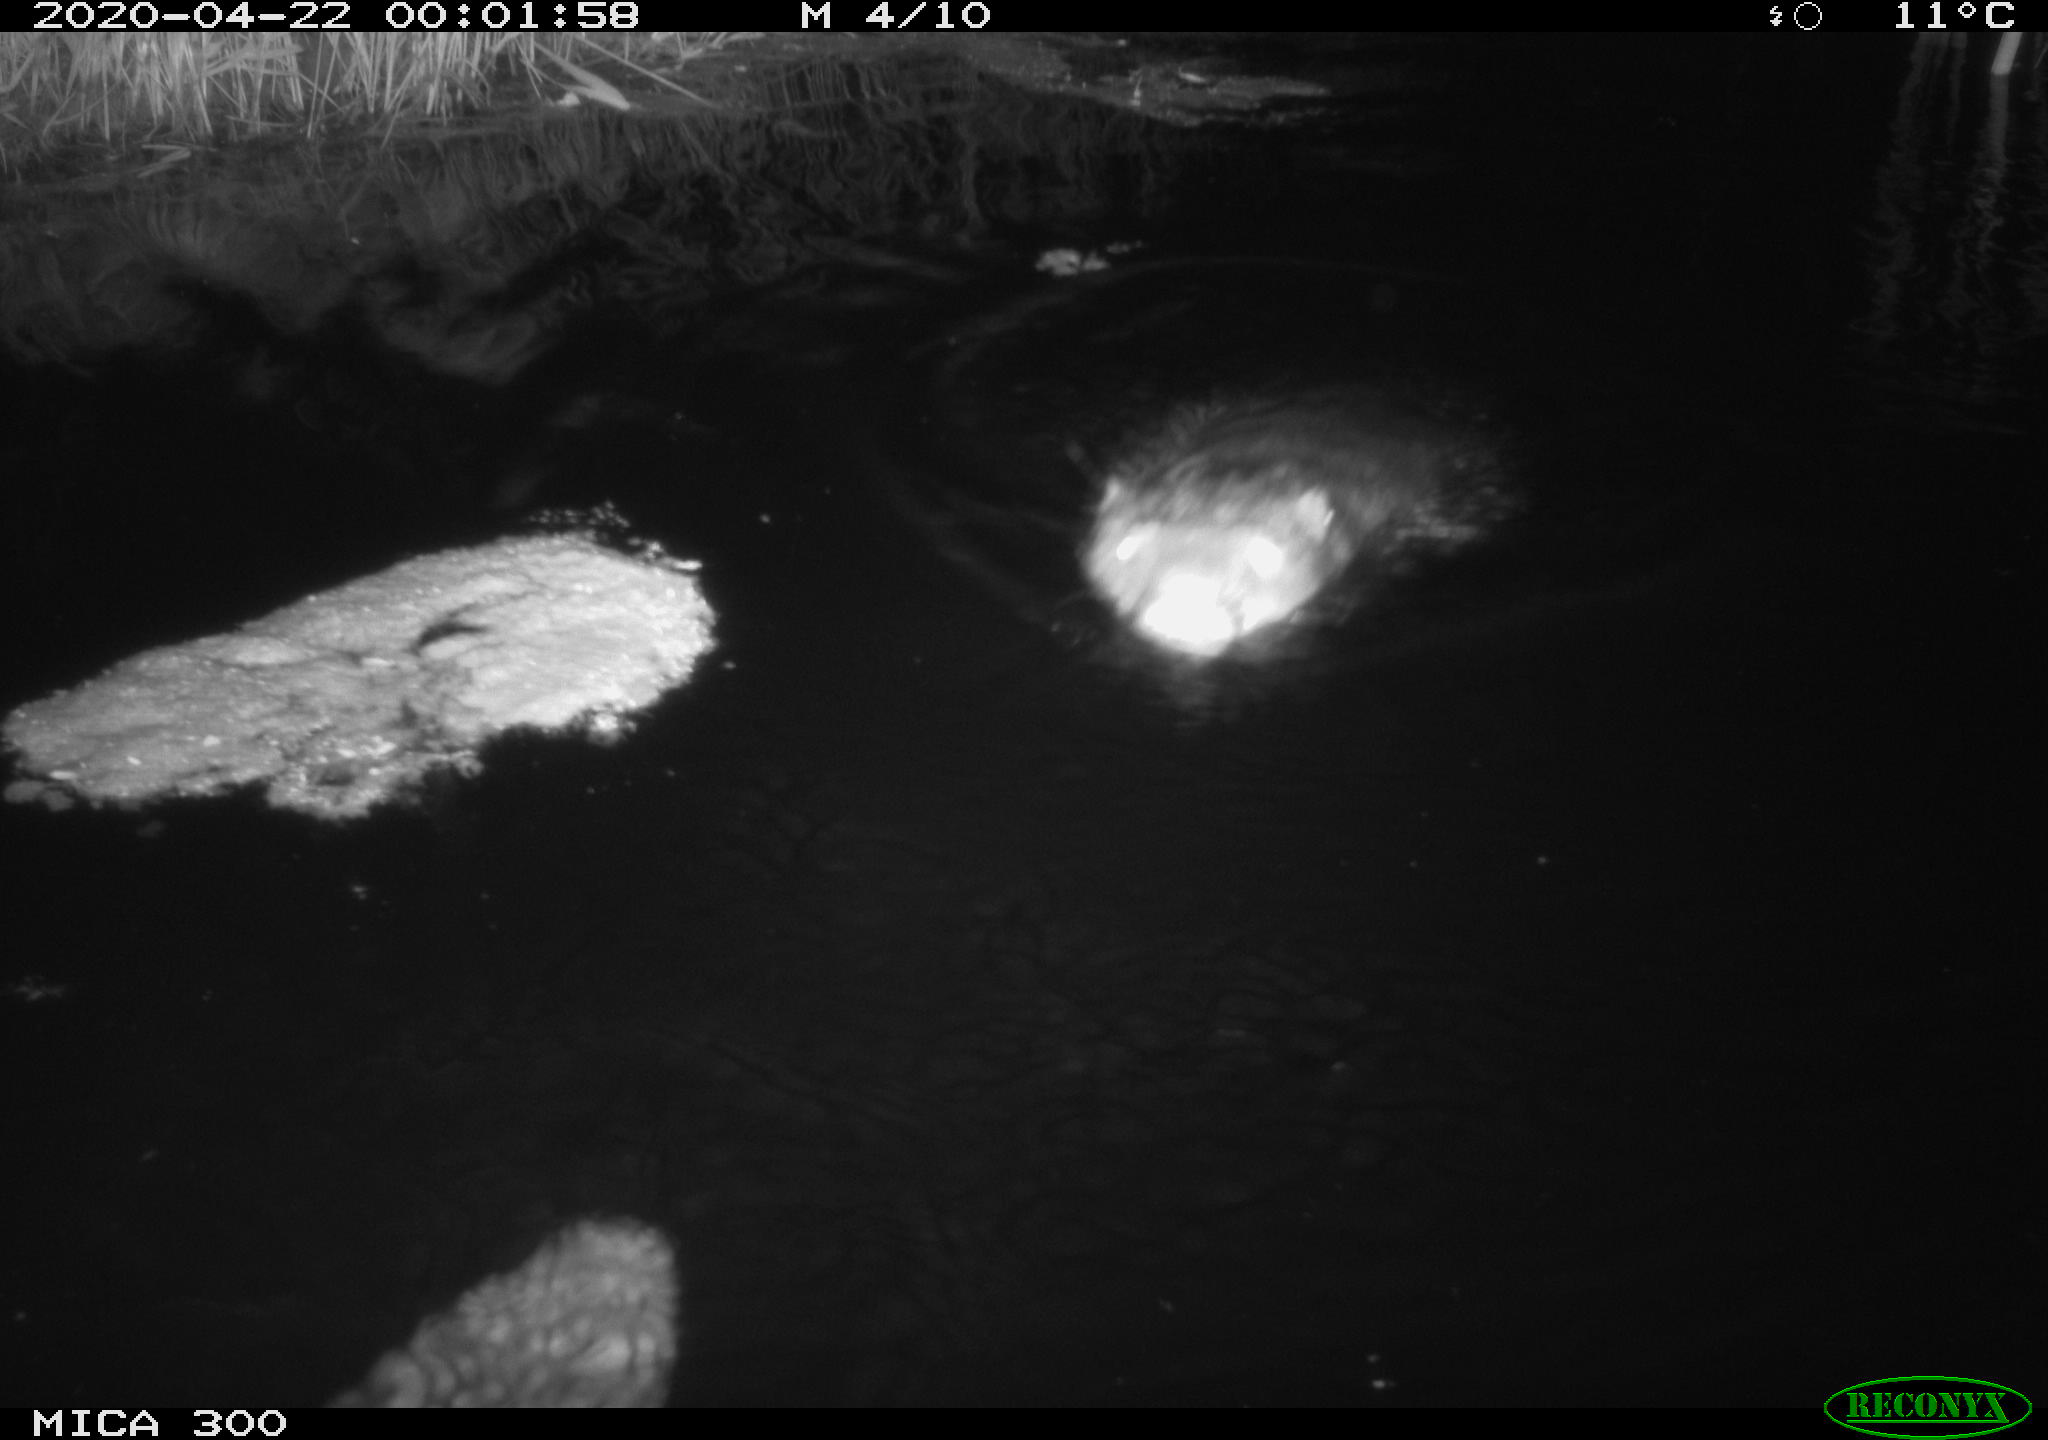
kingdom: Animalia
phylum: Chordata
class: Mammalia
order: Rodentia
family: Castoridae
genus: Castor
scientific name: Castor fiber
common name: Eurasian beaver
